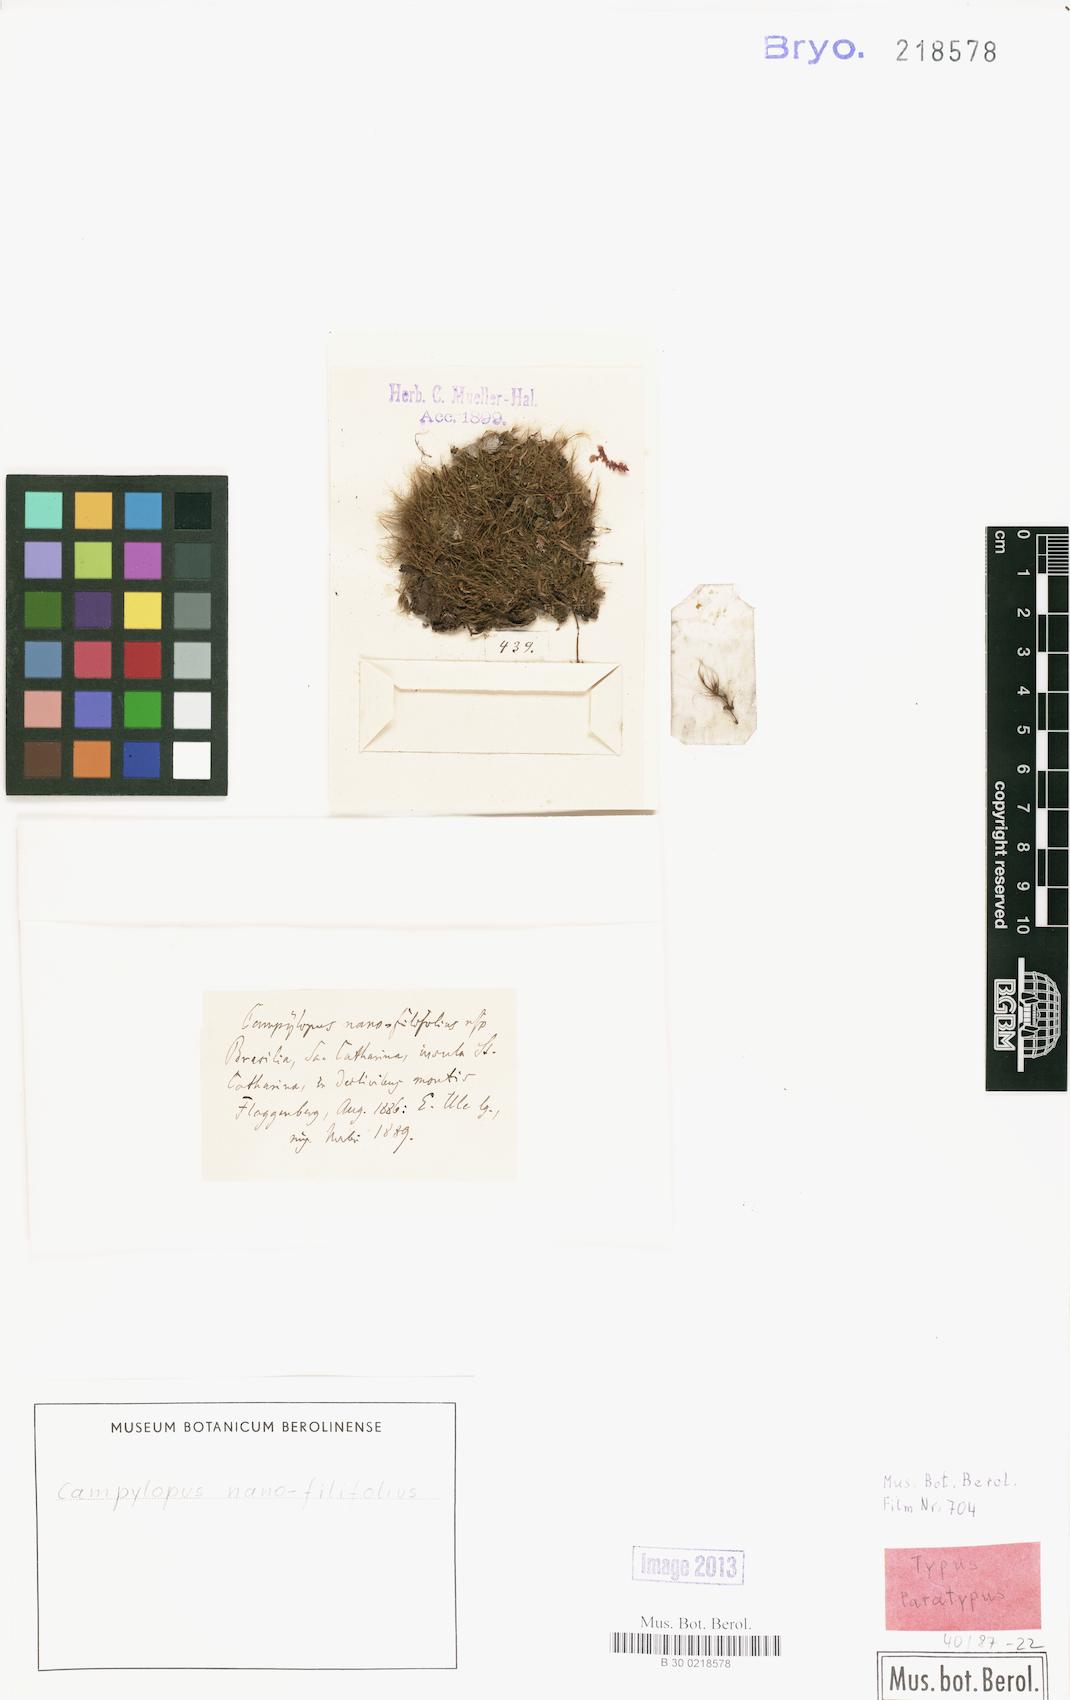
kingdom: Plantae
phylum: Bryophyta
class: Bryopsida
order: Dicranales
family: Leucobryaceae
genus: Campylopus
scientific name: Campylopus filifolius
